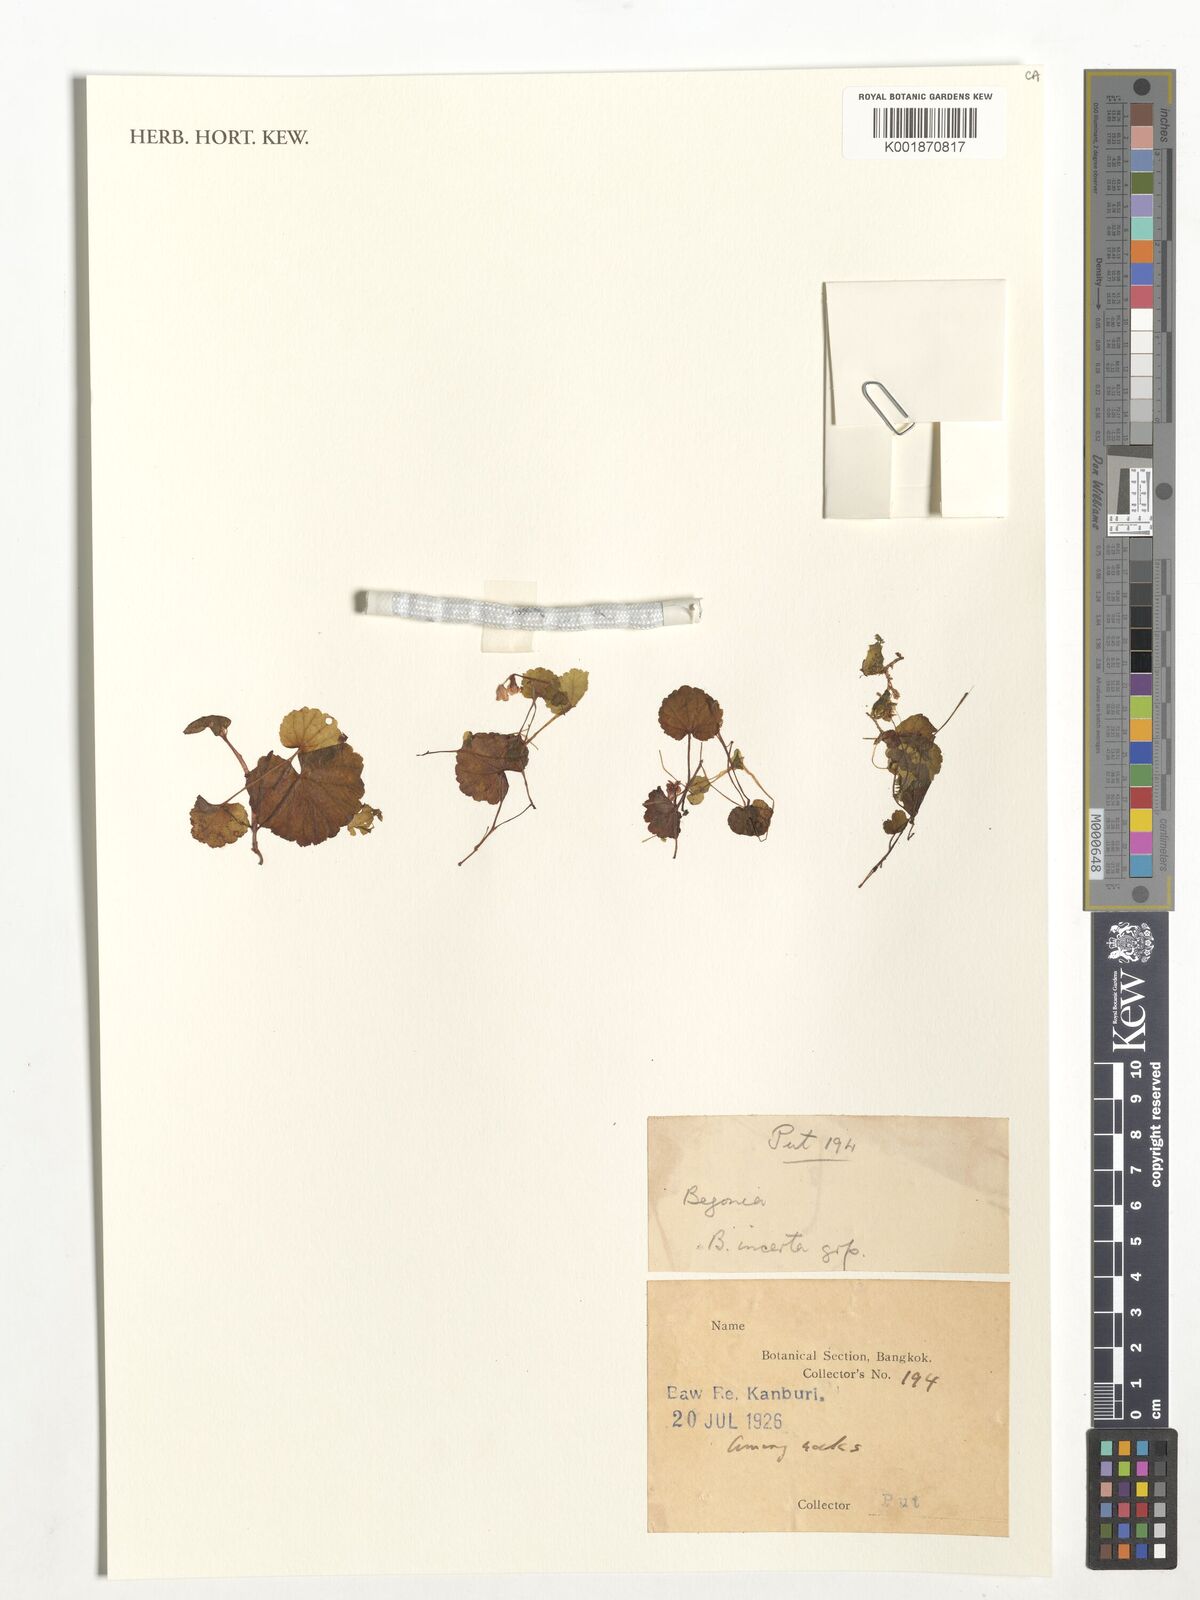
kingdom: Plantae
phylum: Tracheophyta
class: Magnoliopsida
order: Cucurbitales
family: Begoniaceae
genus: Begonia
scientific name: Begonia
